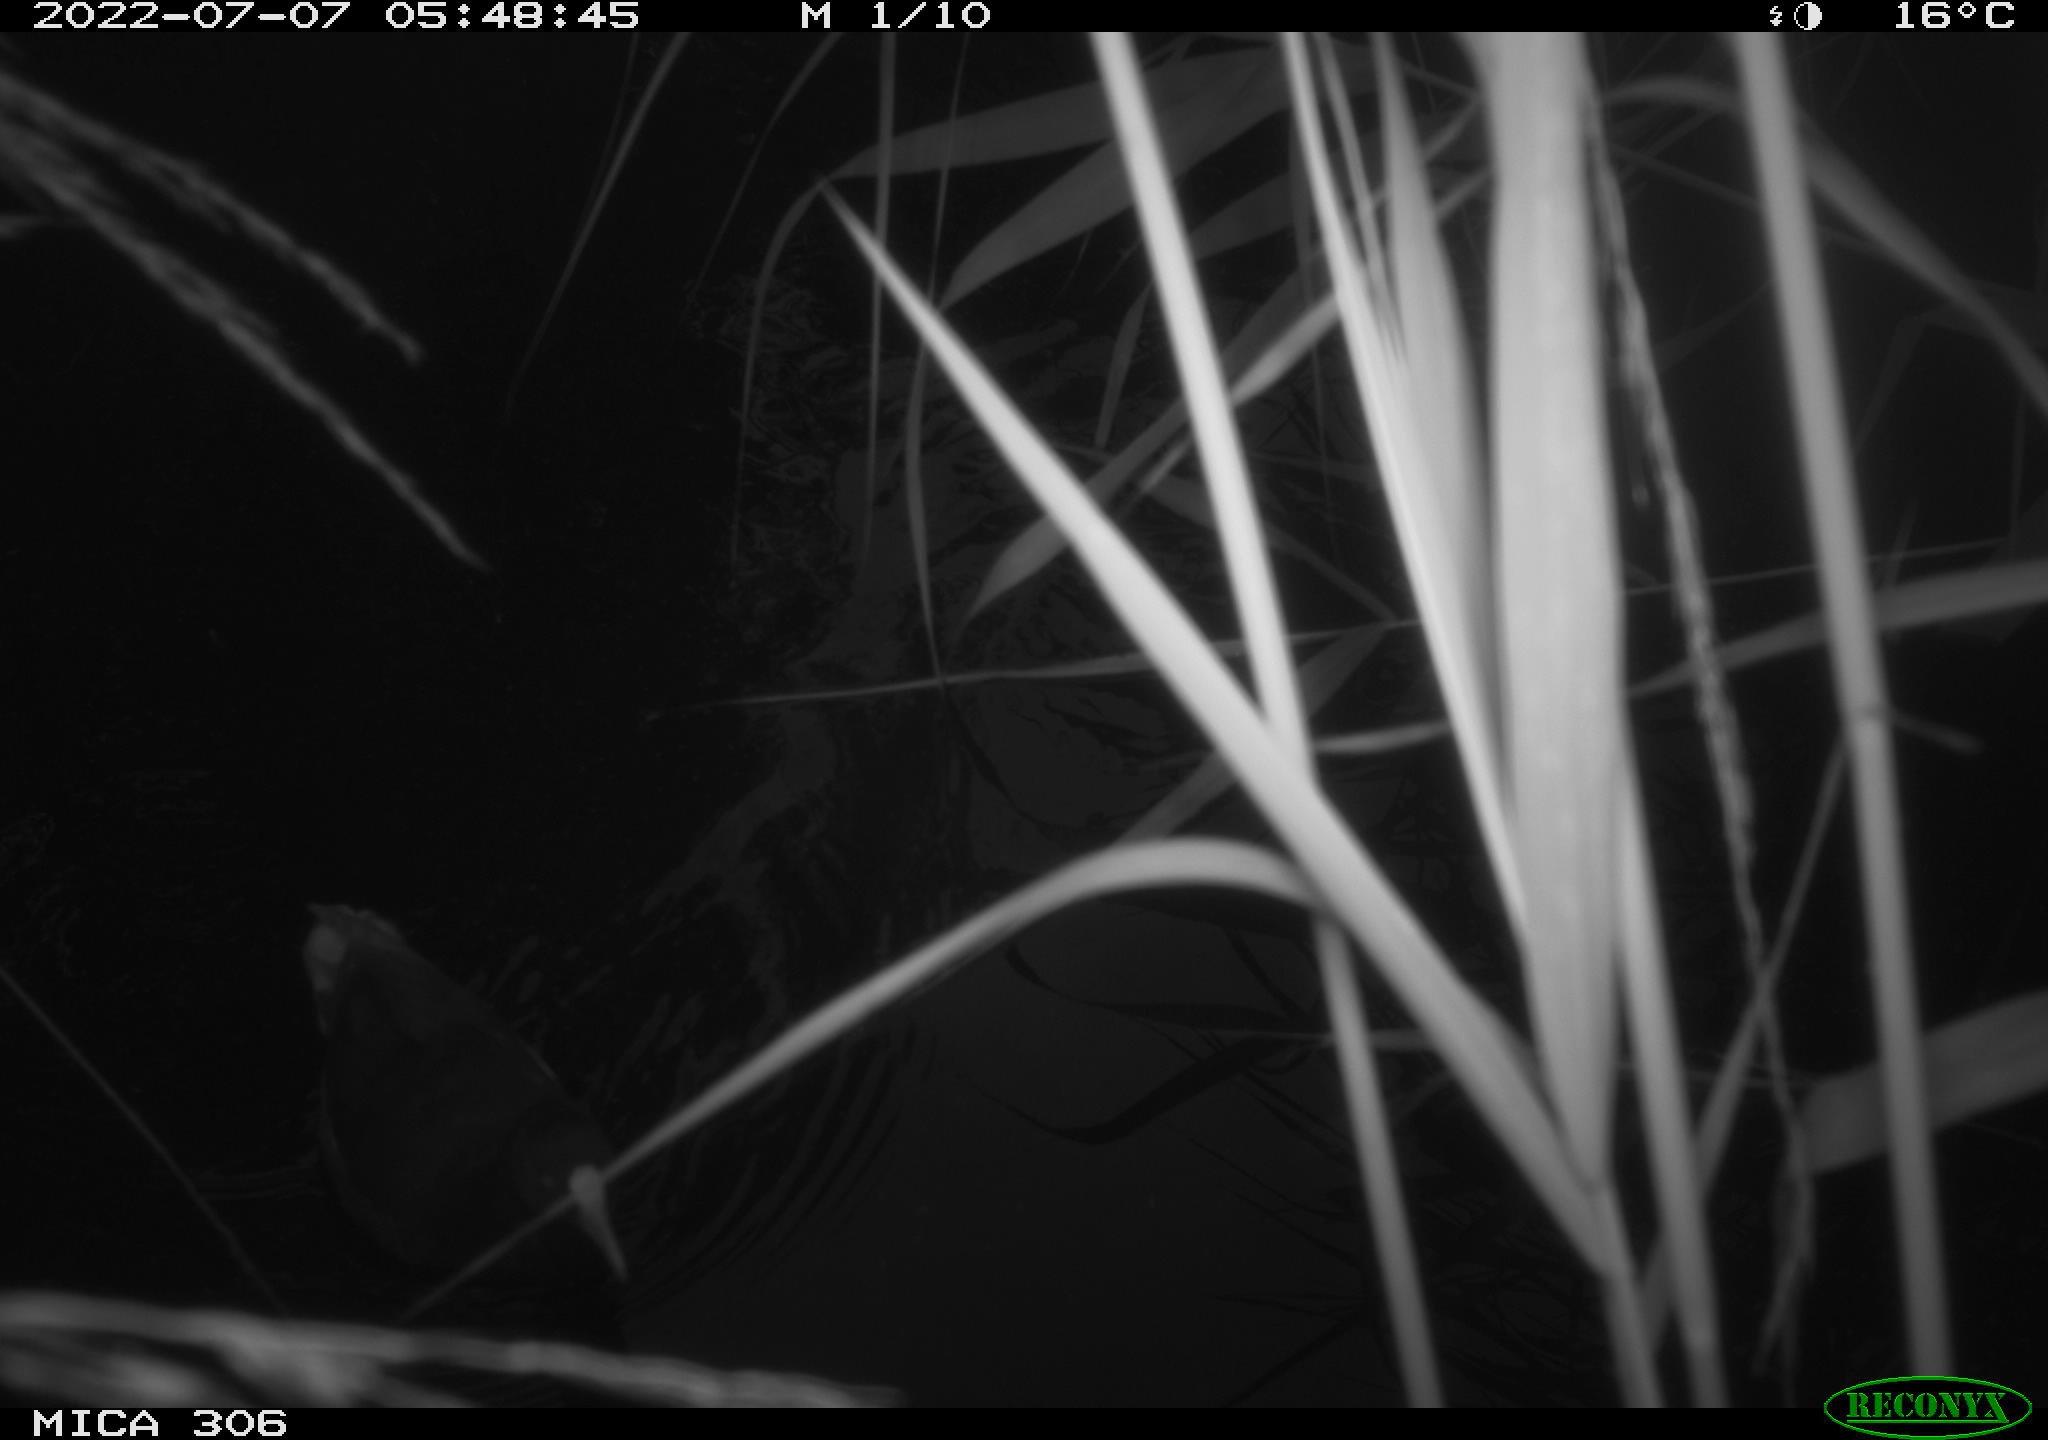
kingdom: Animalia
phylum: Chordata
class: Aves
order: Gruiformes
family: Rallidae
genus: Gallinula
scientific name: Gallinula chloropus
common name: Common moorhen
